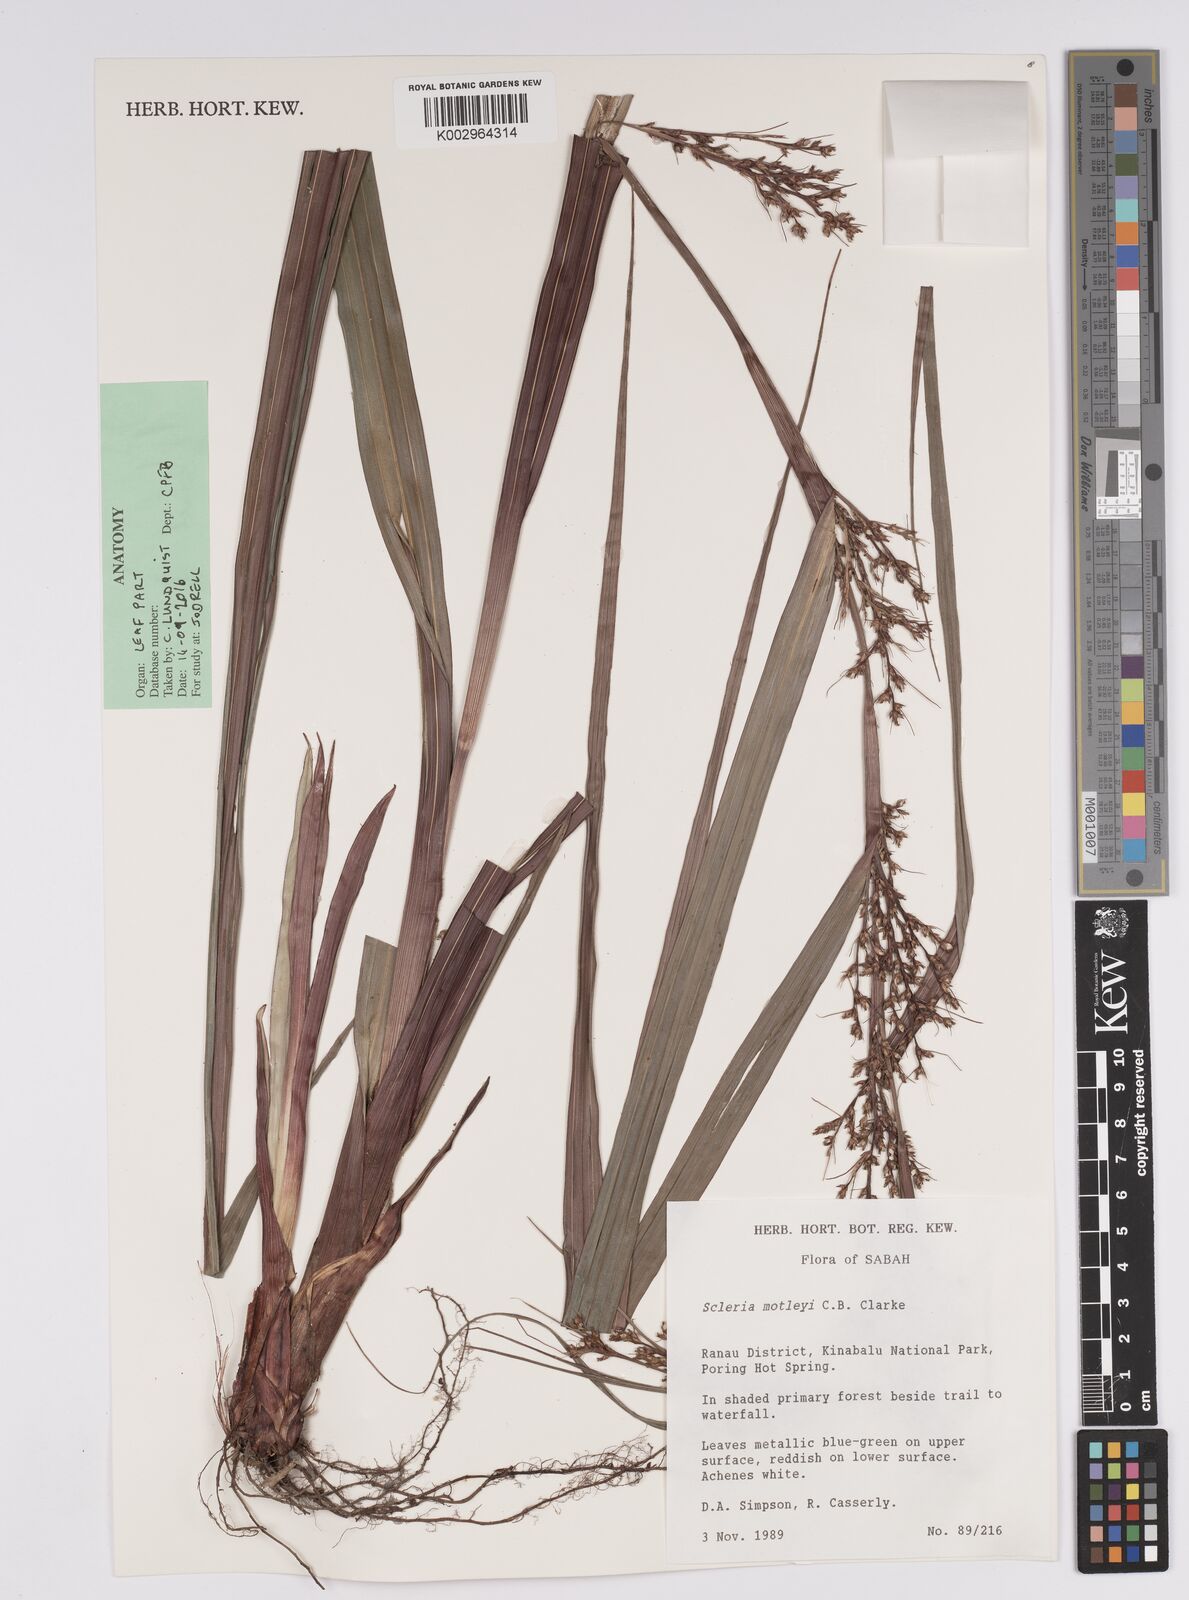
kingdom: Plantae
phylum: Tracheophyta
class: Liliopsida
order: Poales
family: Cyperaceae
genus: Scleria
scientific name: Scleria motleyi
